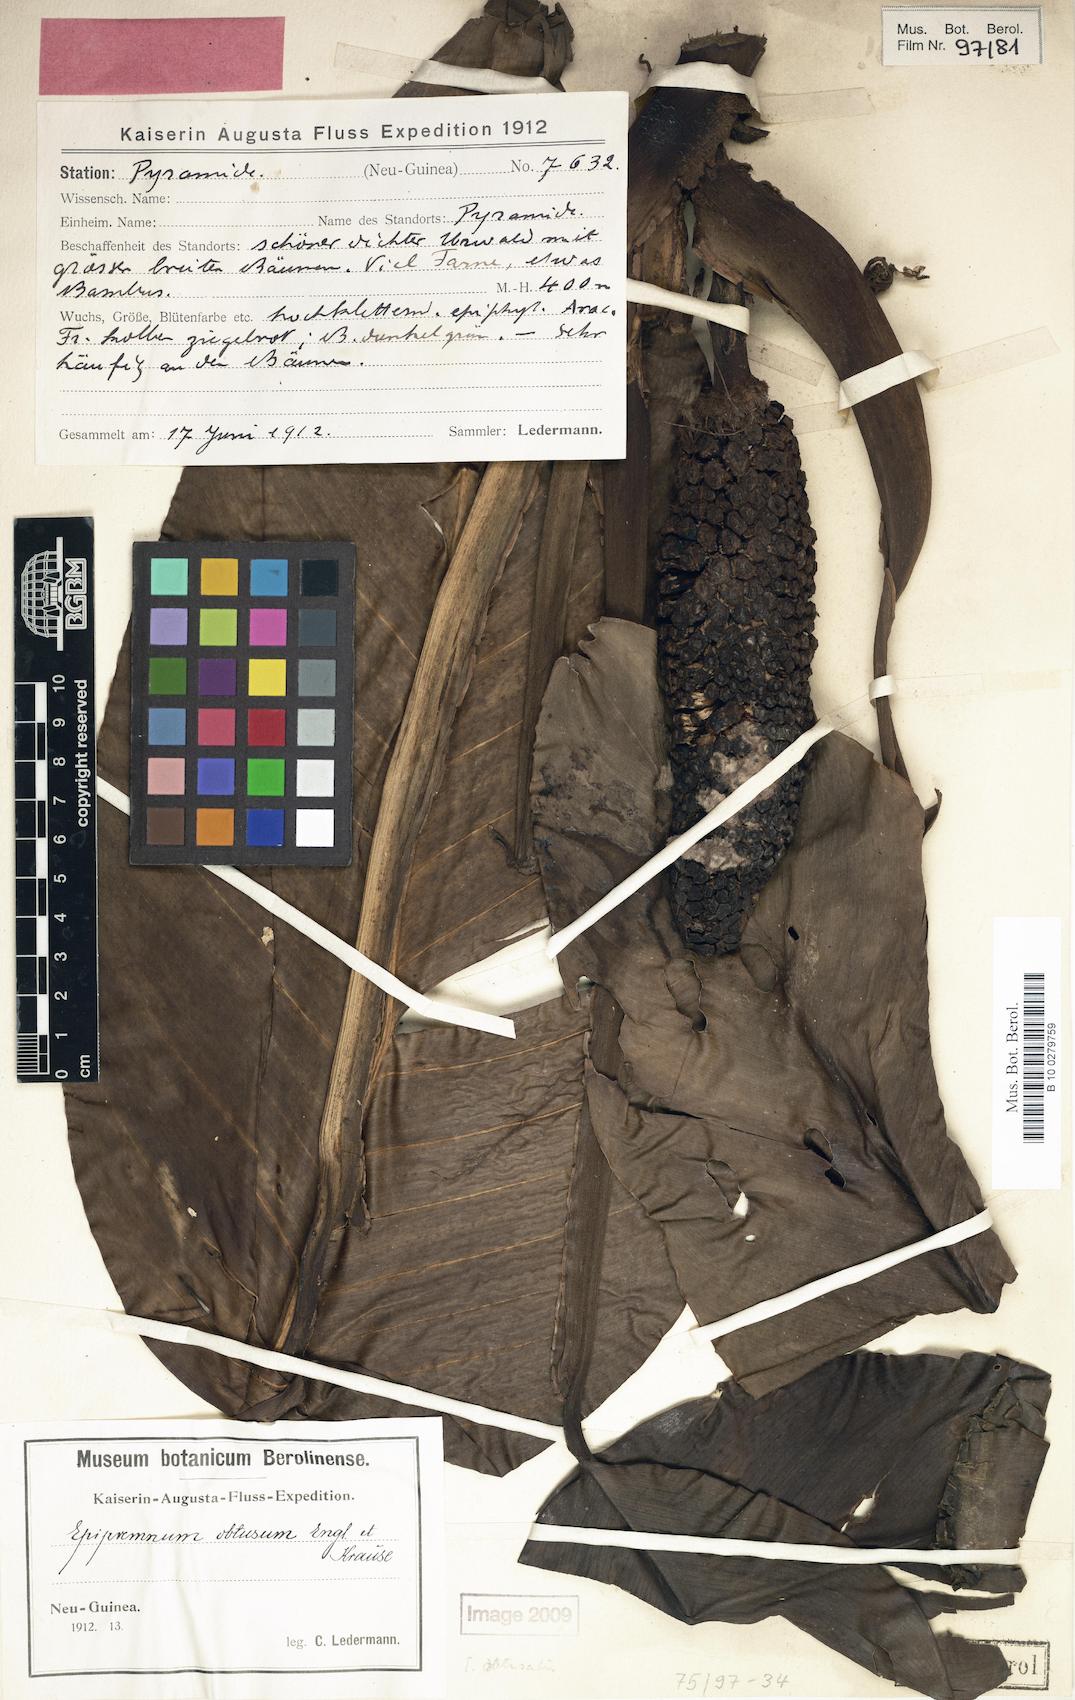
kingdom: Plantae
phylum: Tracheophyta
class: Liliopsida
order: Alismatales
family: Araceae
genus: Epipremnum
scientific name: Epipremnum obtusum
